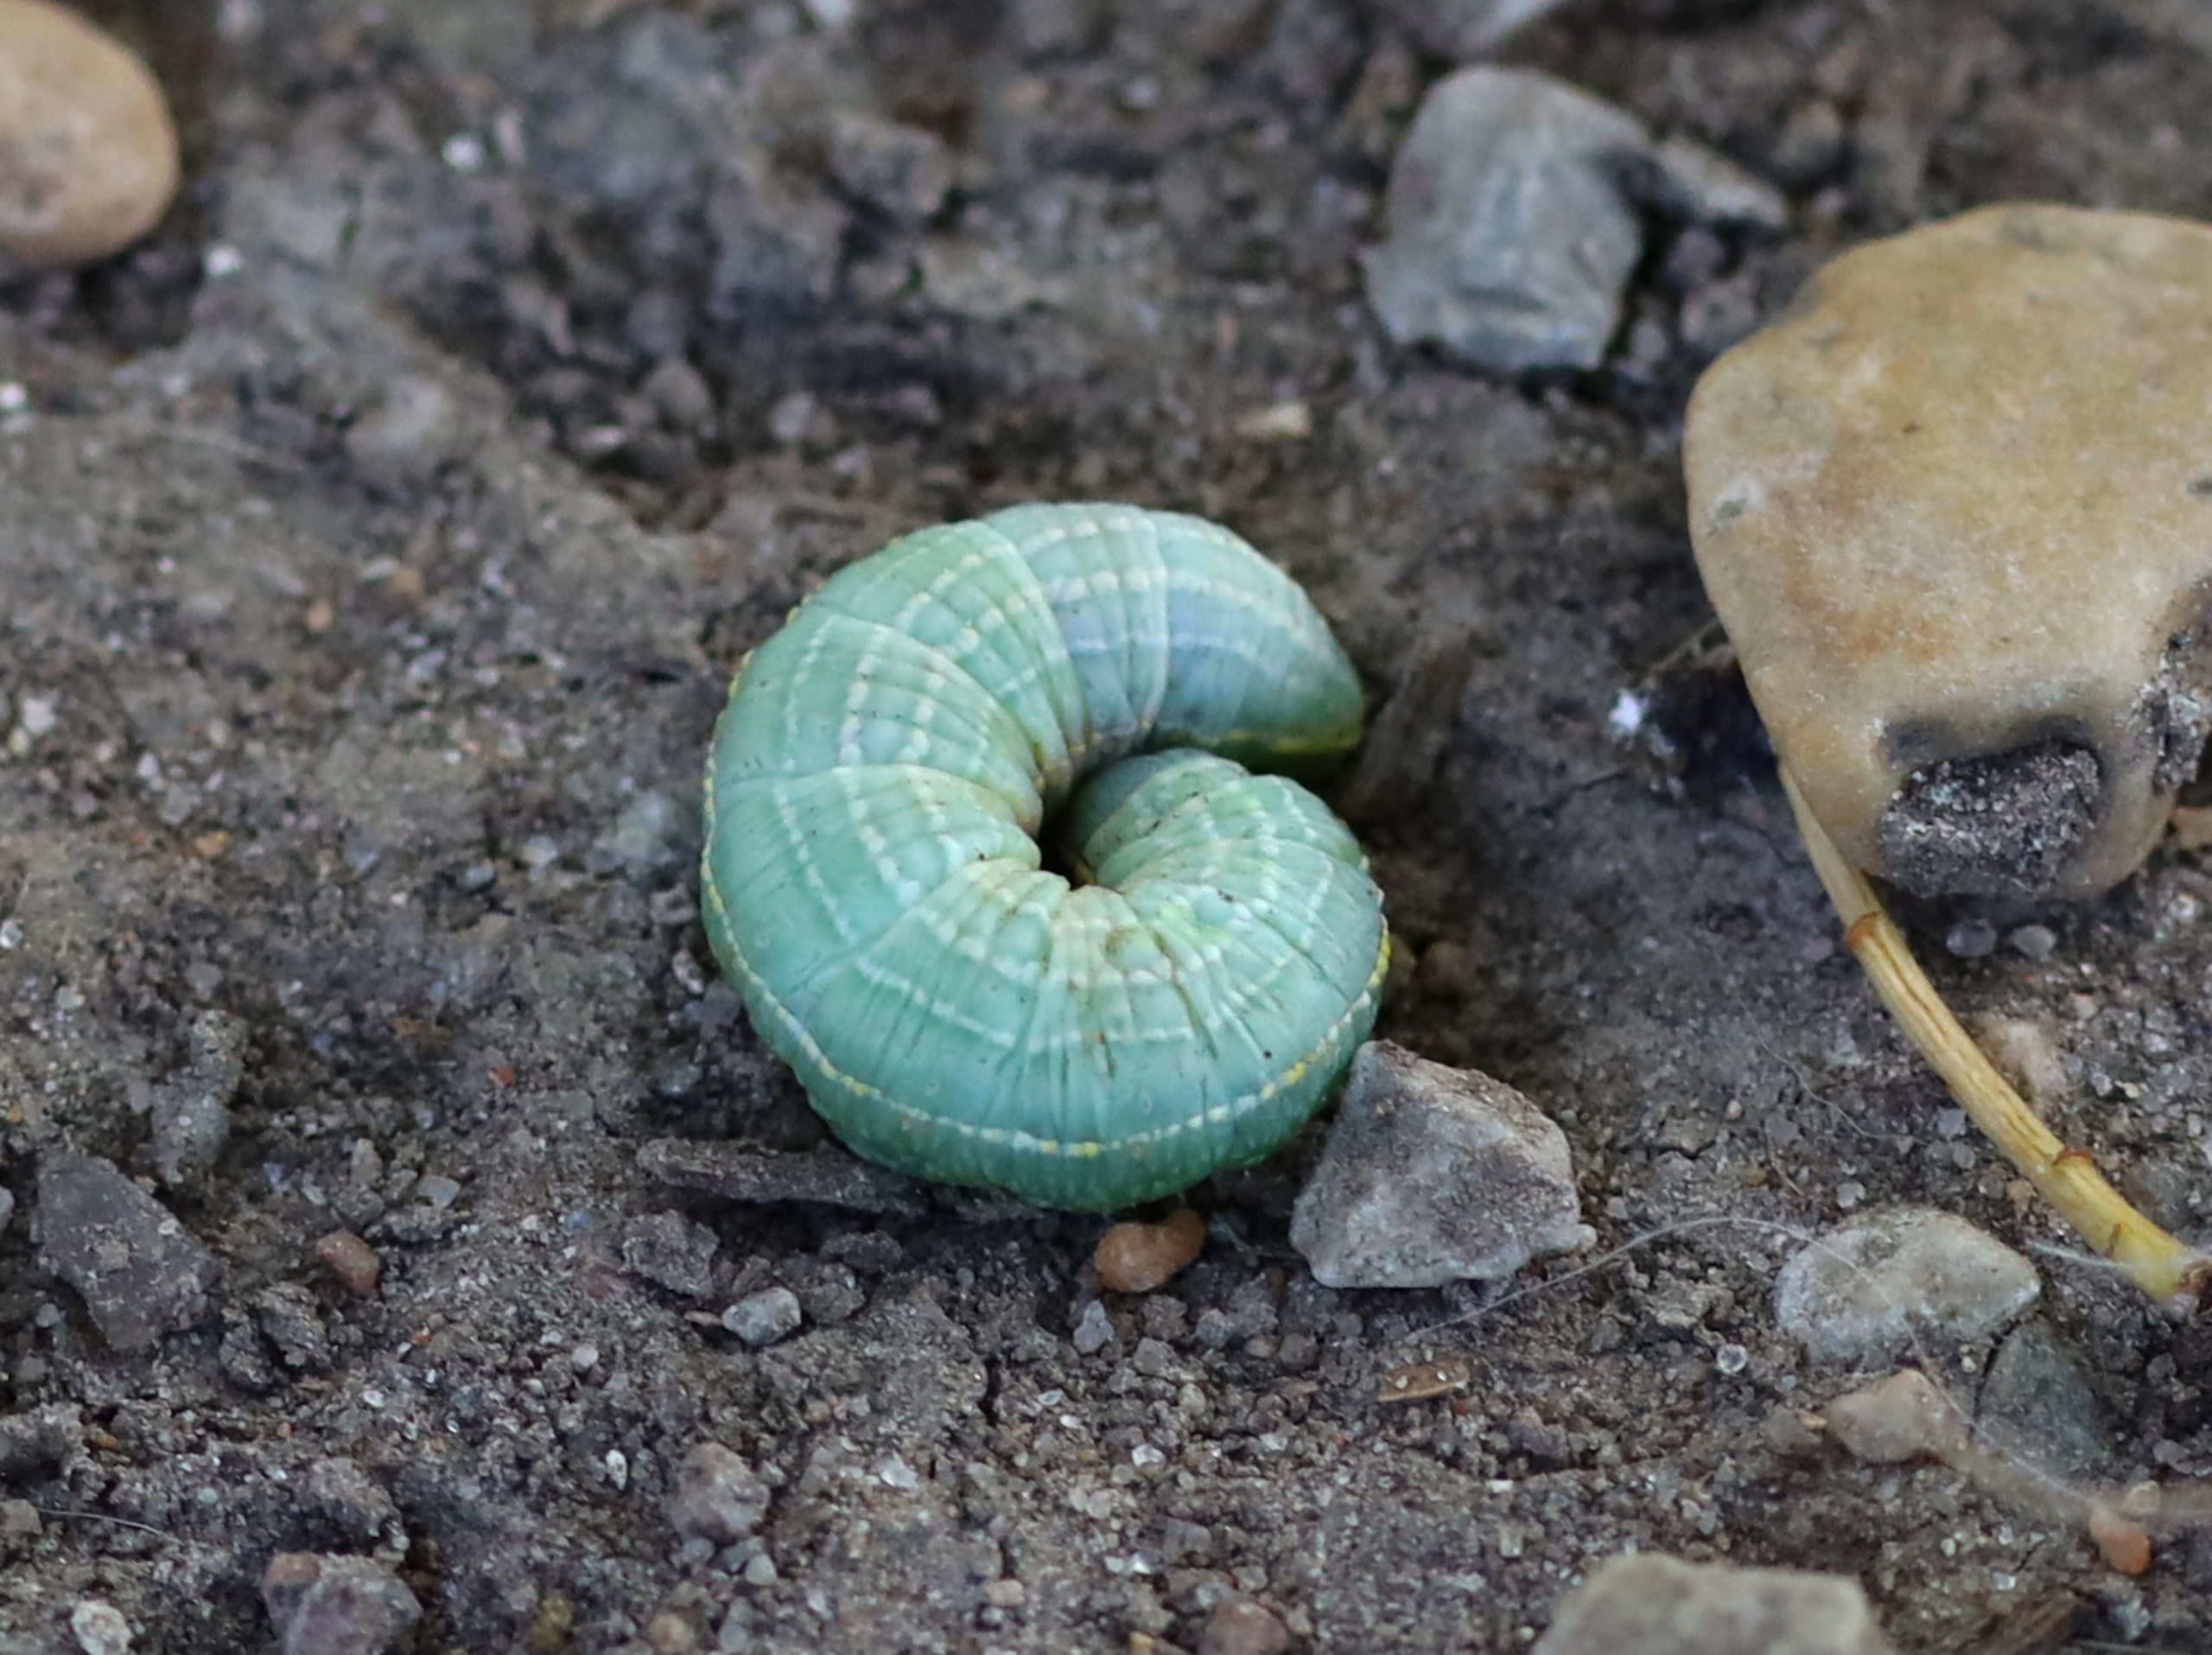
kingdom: Animalia
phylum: Arthropoda
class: Insecta
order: Lepidoptera
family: Notodontidae
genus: Pterostoma
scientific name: Pterostoma palpina
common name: Palpetandspinder
